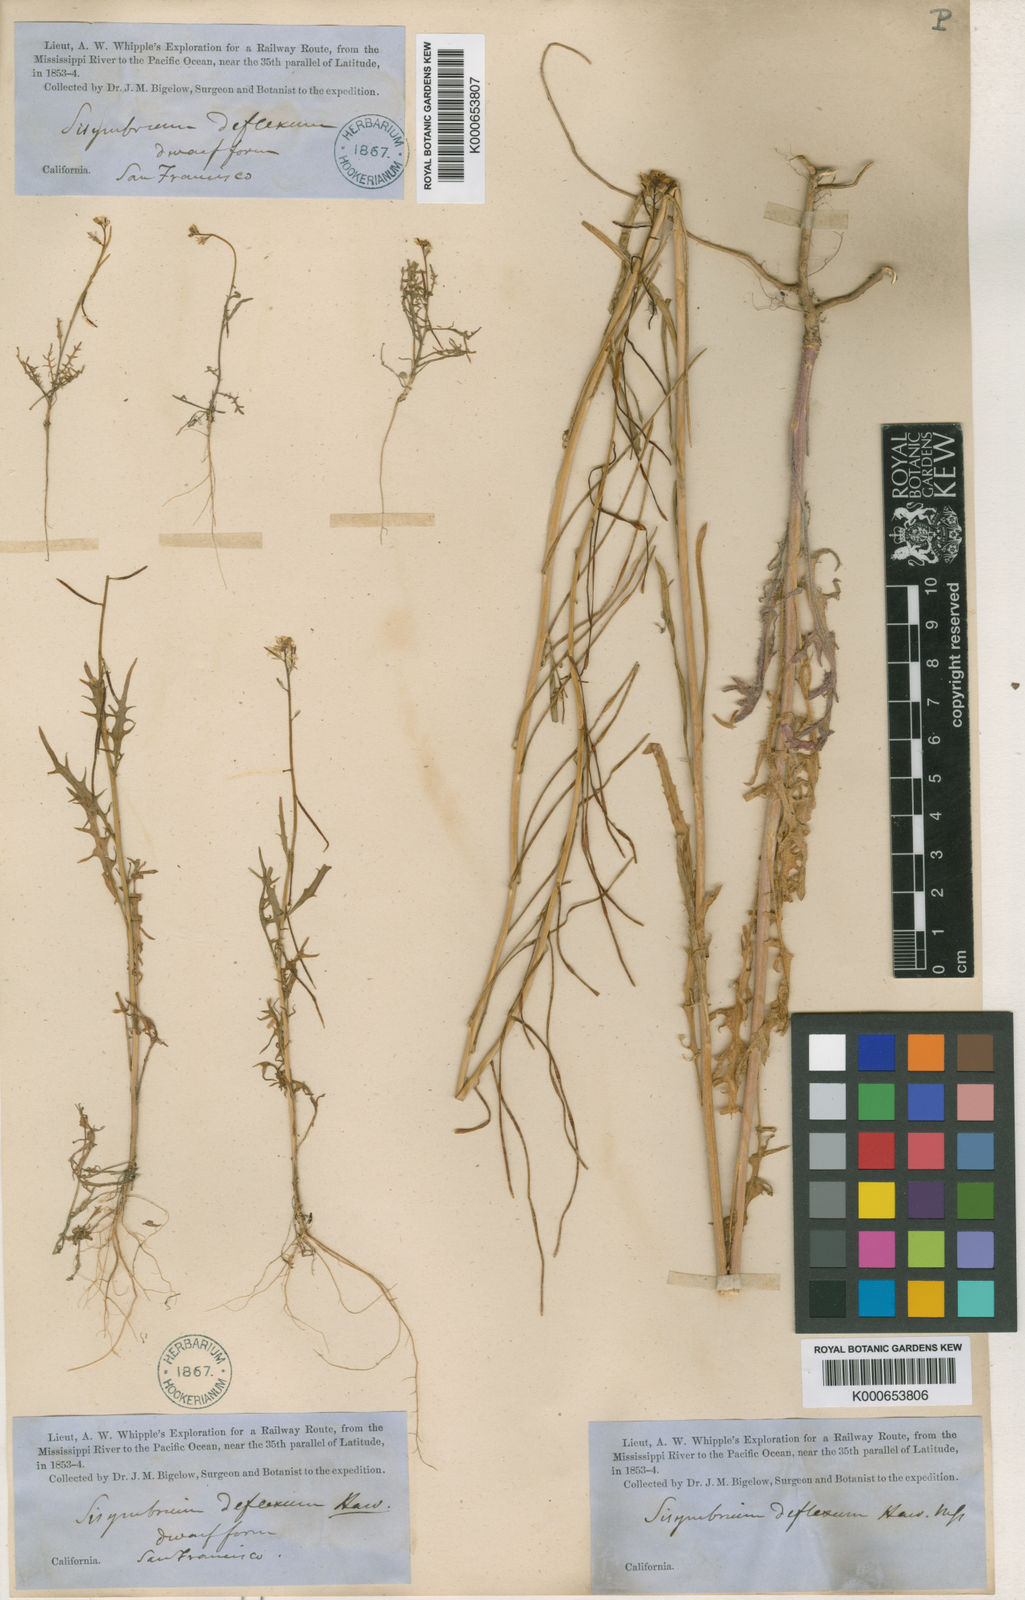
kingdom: Plantae
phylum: Tracheophyta
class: Magnoliopsida
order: Brassicales
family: Brassicaceae
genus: Streptanthus
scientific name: Streptanthus lasiophyllus
